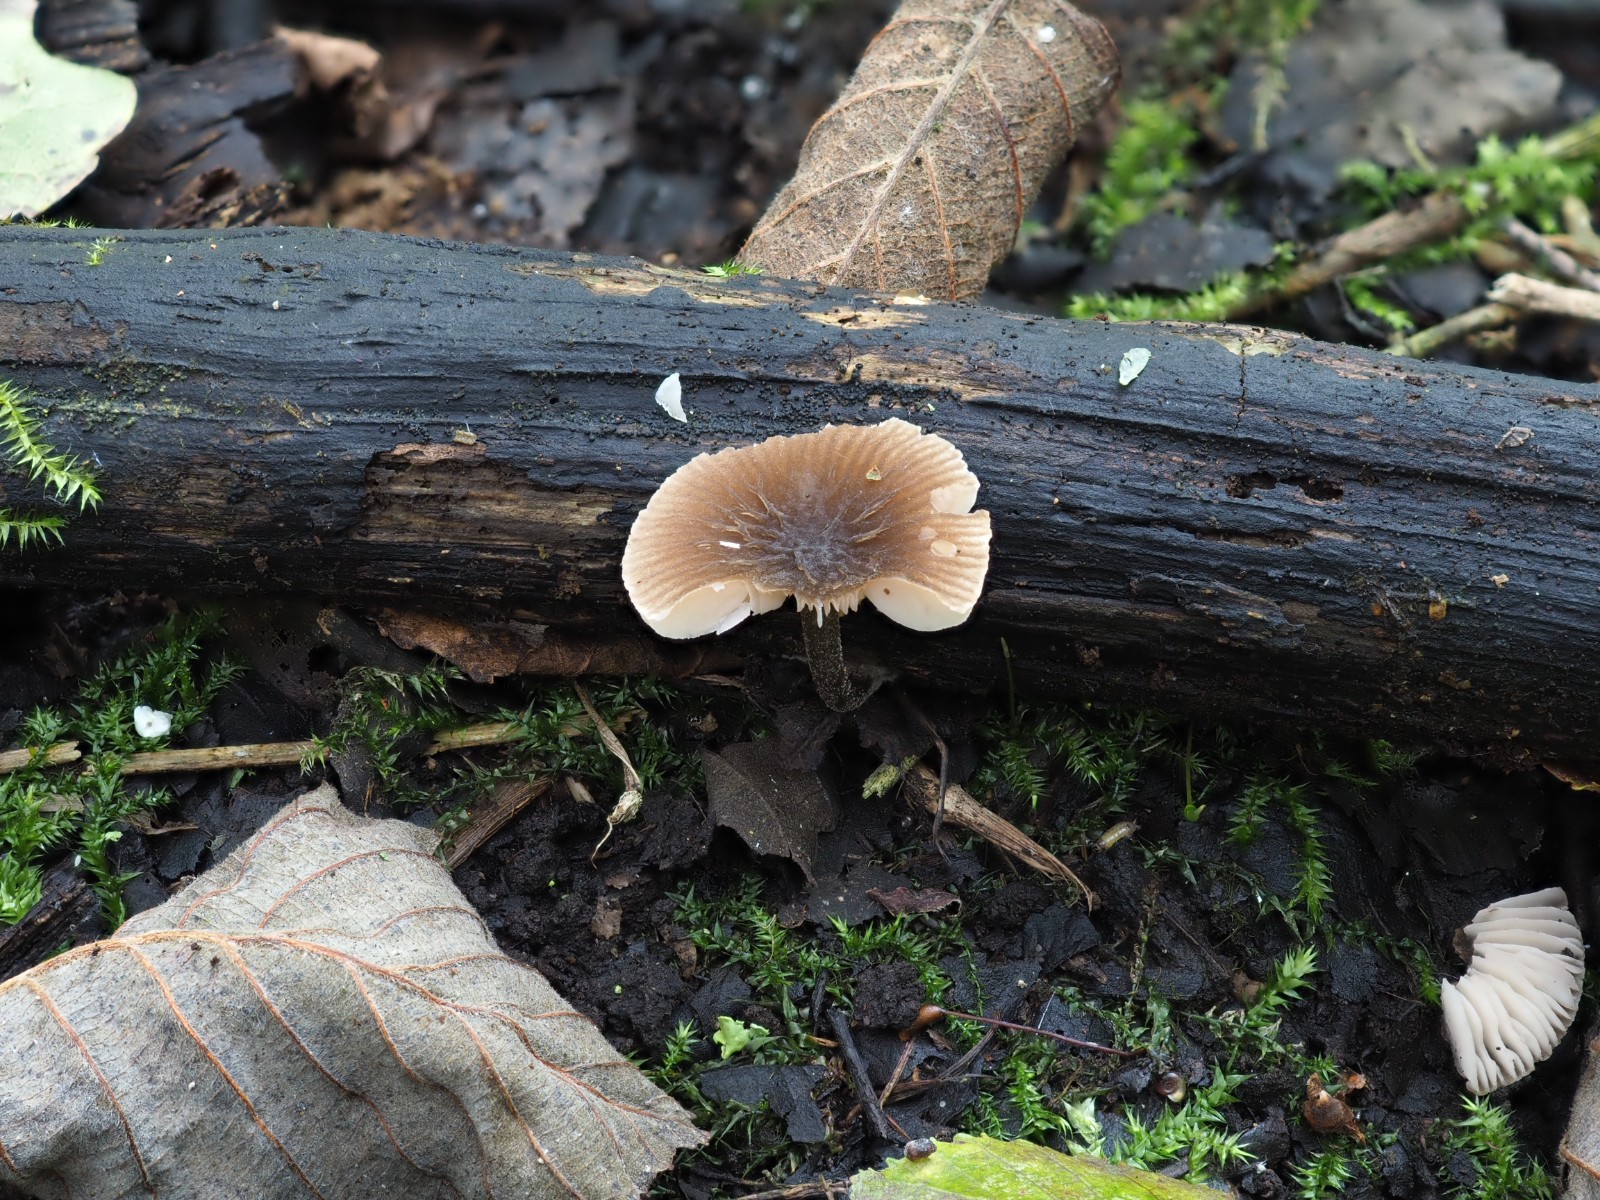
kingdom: Fungi
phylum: Basidiomycota
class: Agaricomycetes
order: Agaricales
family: Pluteaceae
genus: Pluteus
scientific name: Pluteus
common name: gråstokket skærmhat
